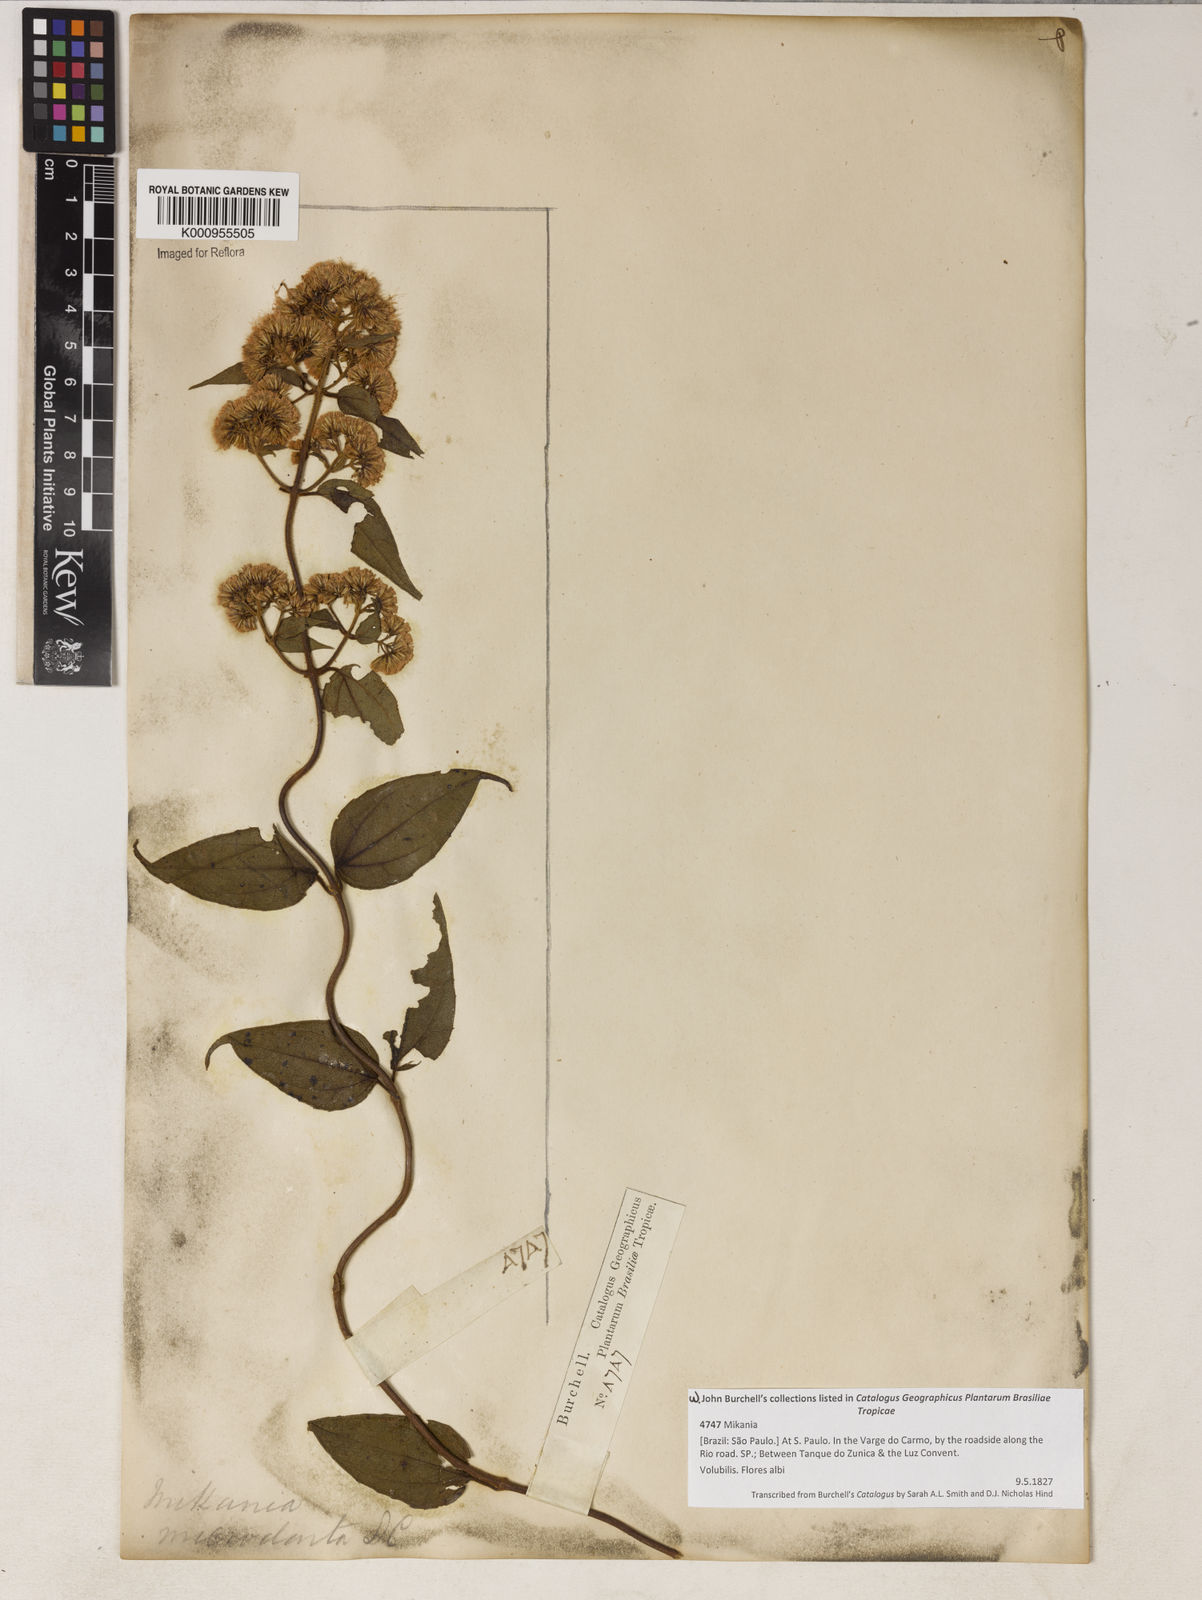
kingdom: Plantae
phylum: Tracheophyta
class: Magnoliopsida
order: Asterales
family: Asteraceae
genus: Mikania
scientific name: Mikania microdonta
